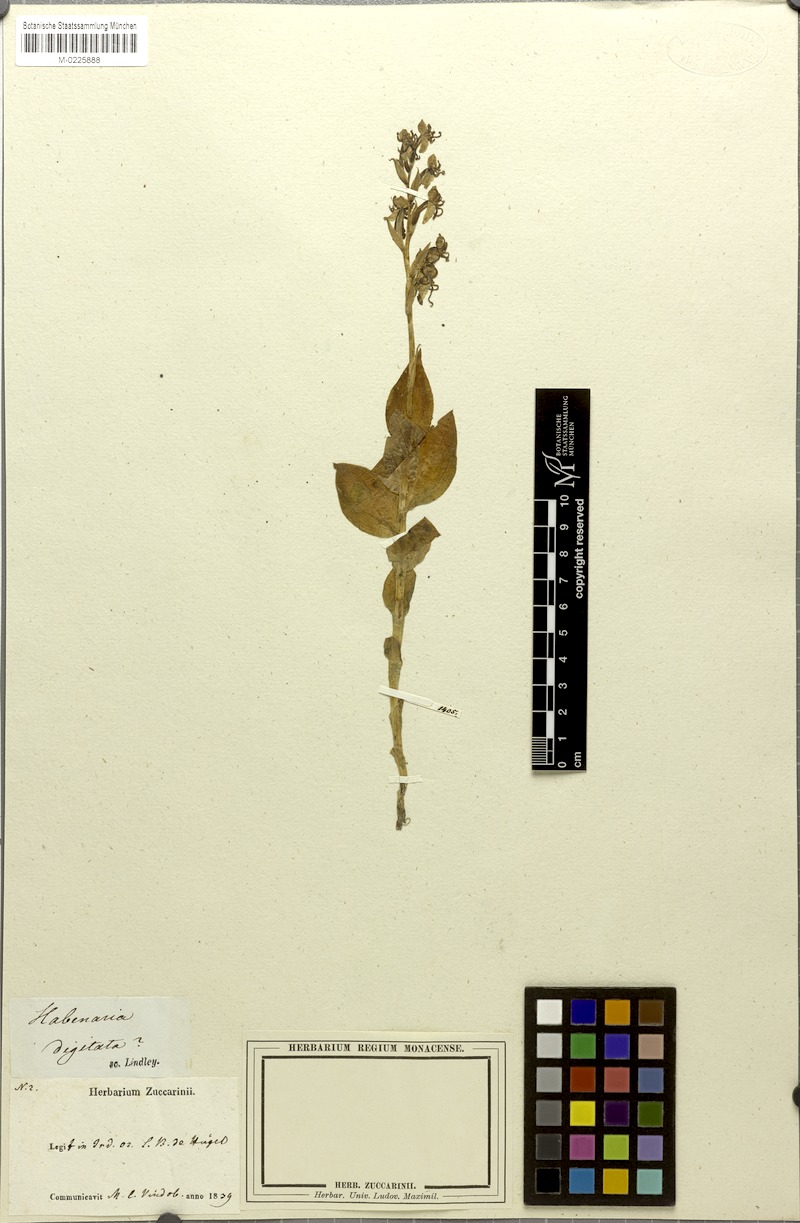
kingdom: Plantae
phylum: Tracheophyta
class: Liliopsida
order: Asparagales
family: Orchidaceae
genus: Habenaria
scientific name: Habenaria digitata
